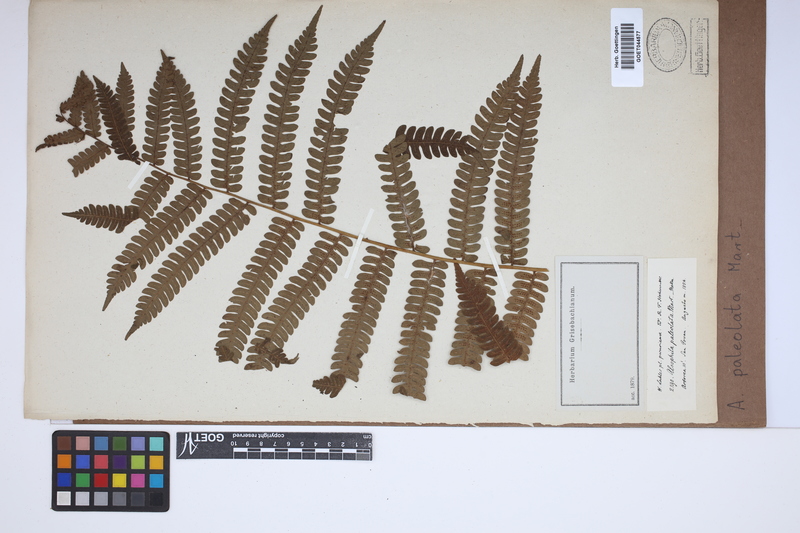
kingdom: Plantae
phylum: Tracheophyta
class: Polypodiopsida
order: Cyatheales
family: Cyatheaceae
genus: Cyathea
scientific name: Cyathea phalerata
